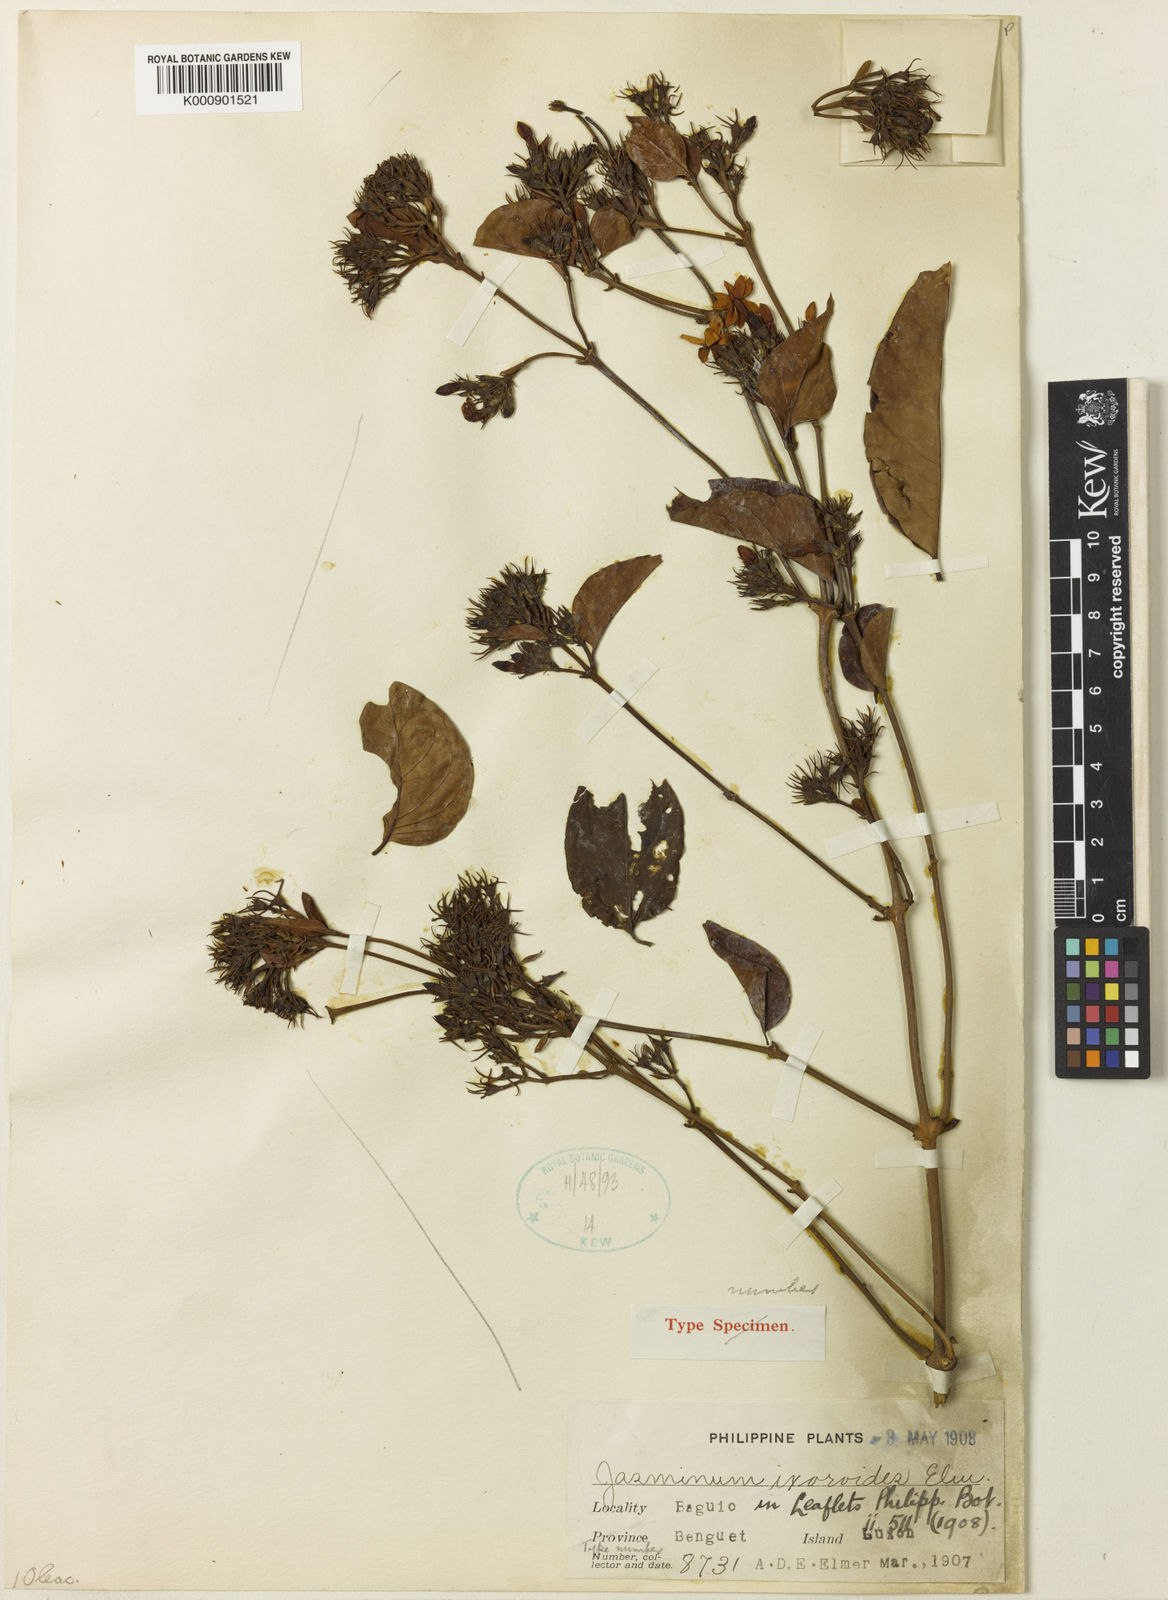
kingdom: Plantae
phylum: Tracheophyta
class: Magnoliopsida
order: Lamiales
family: Oleaceae
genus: Jasminum
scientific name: Jasminum ixoroides
